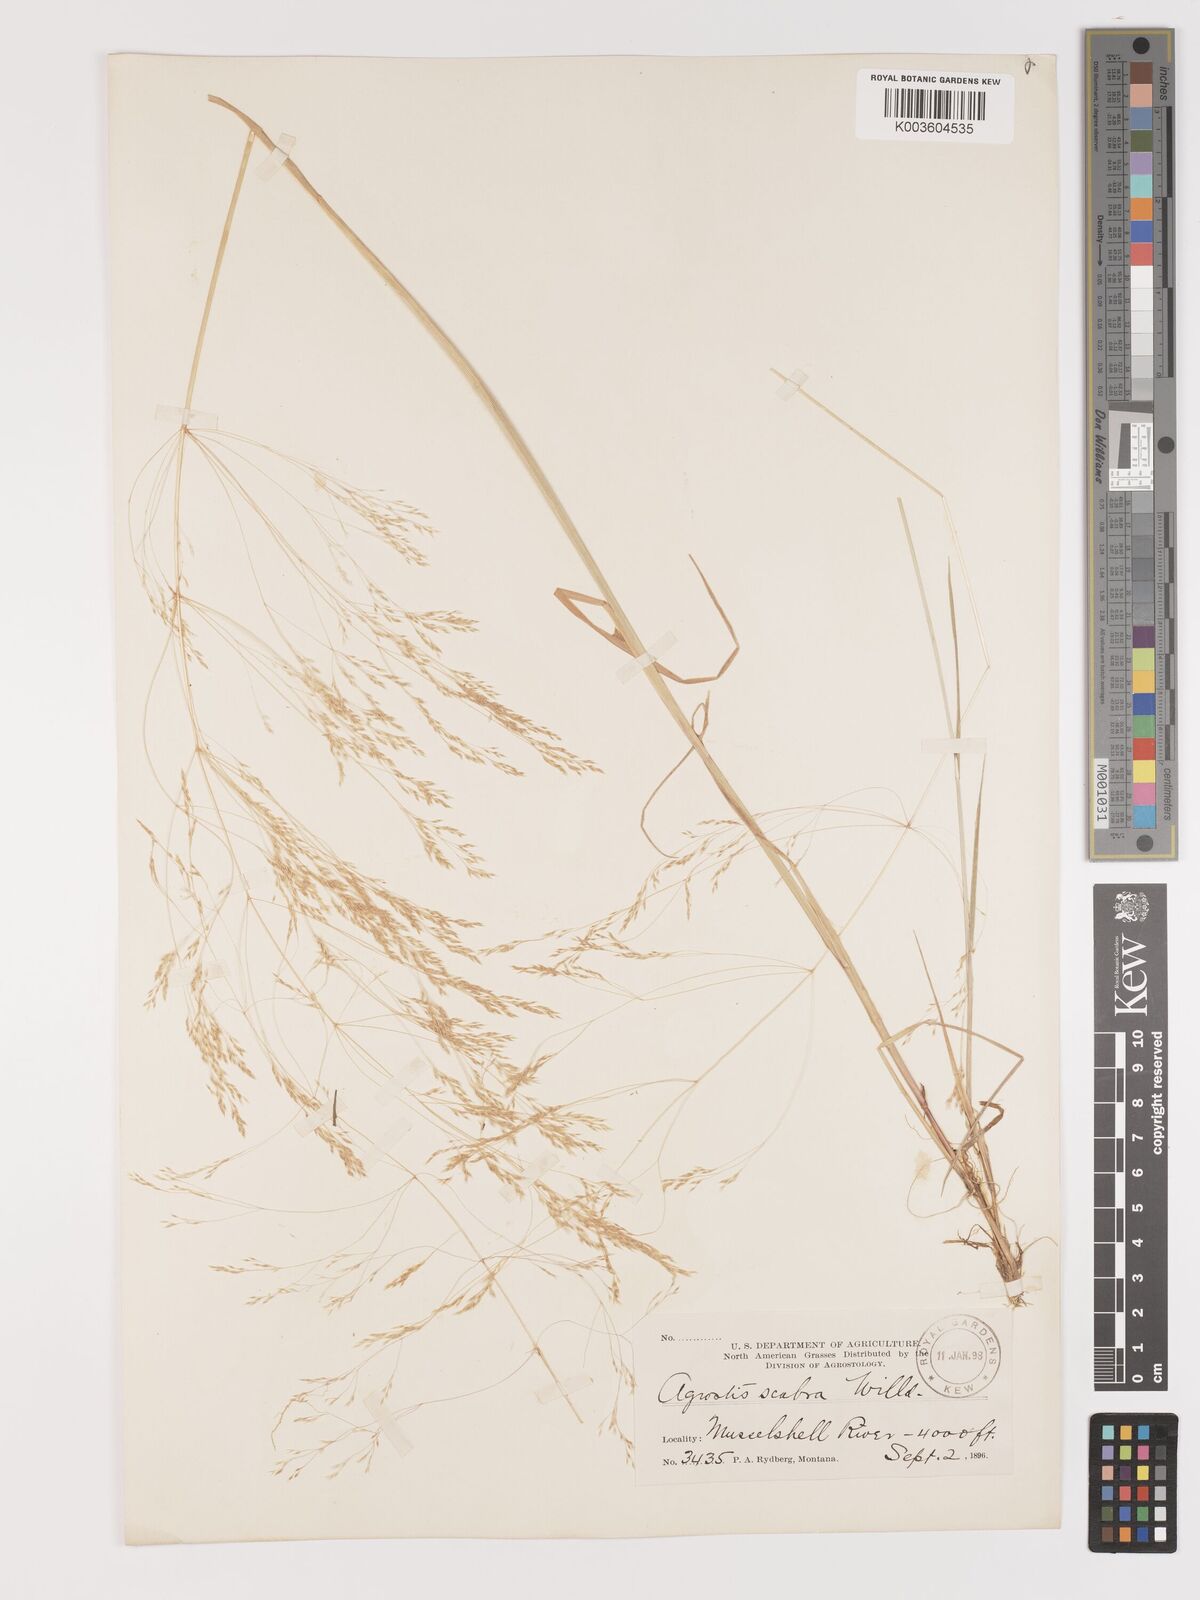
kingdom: Plantae
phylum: Tracheophyta
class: Liliopsida
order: Poales
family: Poaceae
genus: Agrostis
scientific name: Agrostis hyemalis
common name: Small bent
